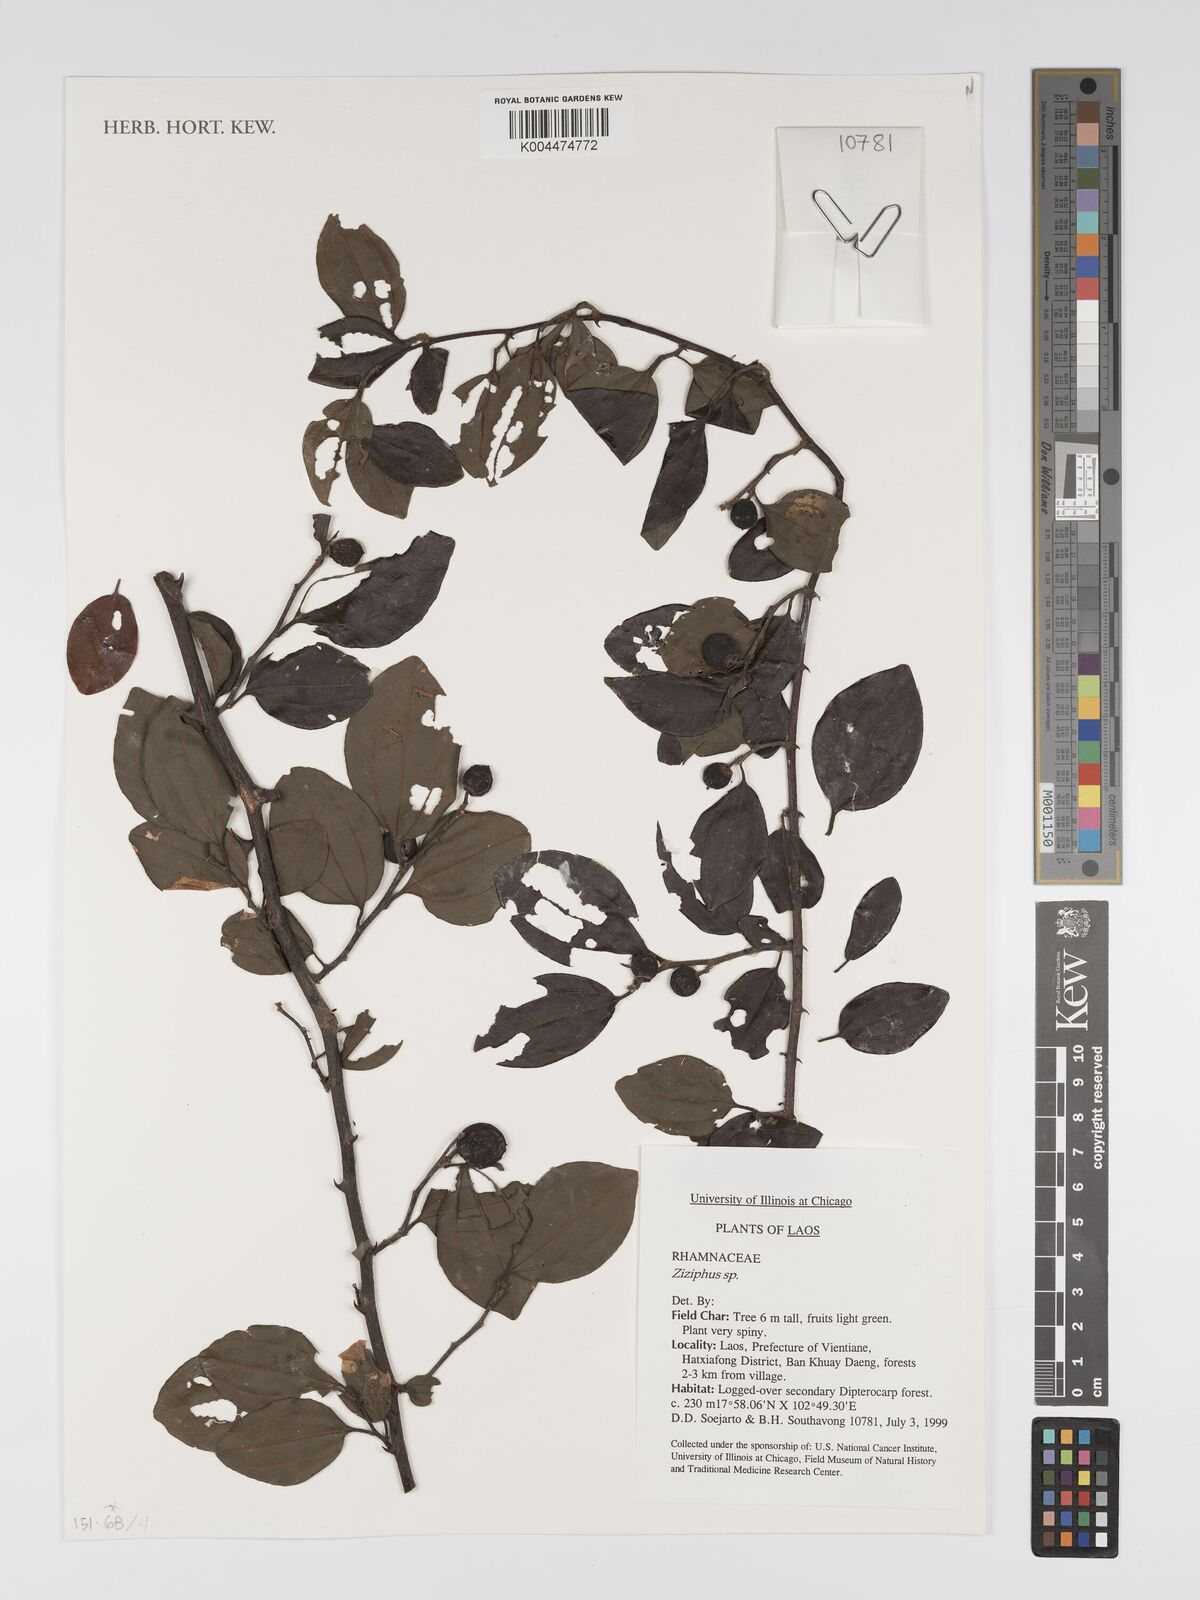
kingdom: Plantae
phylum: Tracheophyta
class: Magnoliopsida
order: Rosales
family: Rhamnaceae
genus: Ziziphus
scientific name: Ziziphus cambodiana
